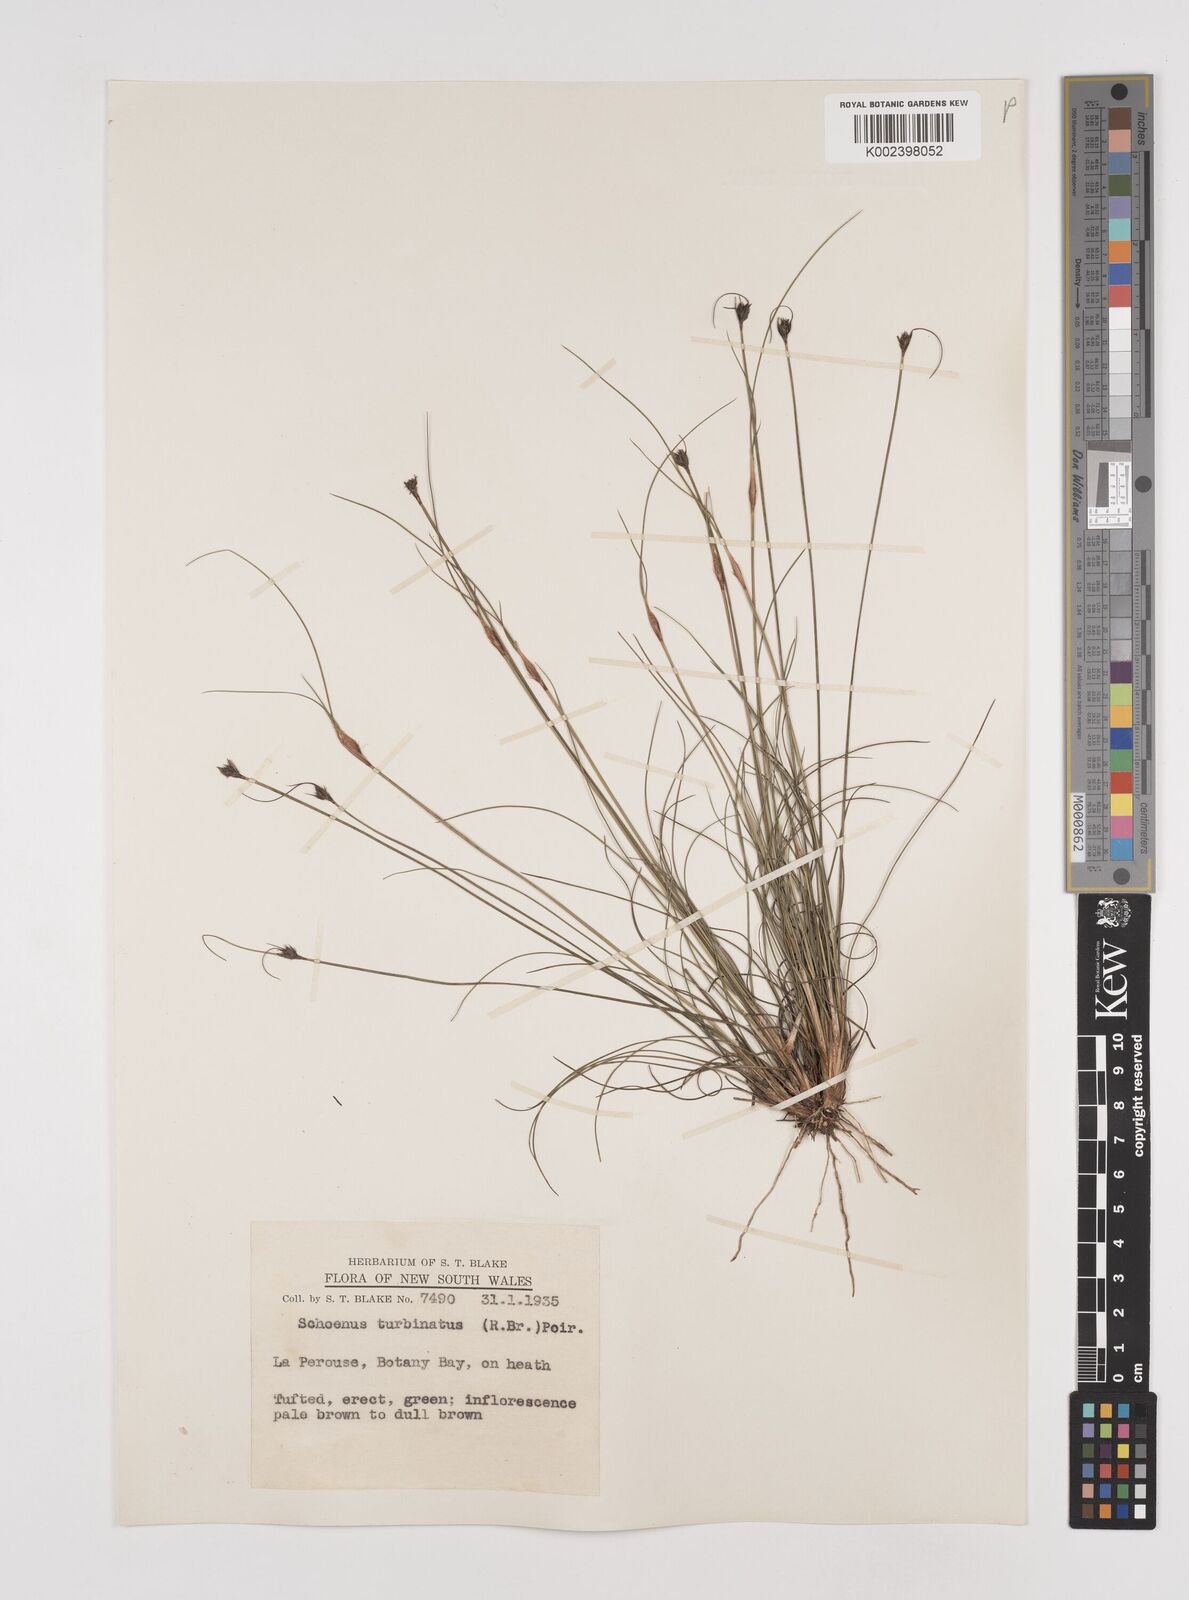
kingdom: Plantae
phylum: Tracheophyta
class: Liliopsida
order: Poales
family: Cyperaceae
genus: Schoenus
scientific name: Schoenus turbinatus
